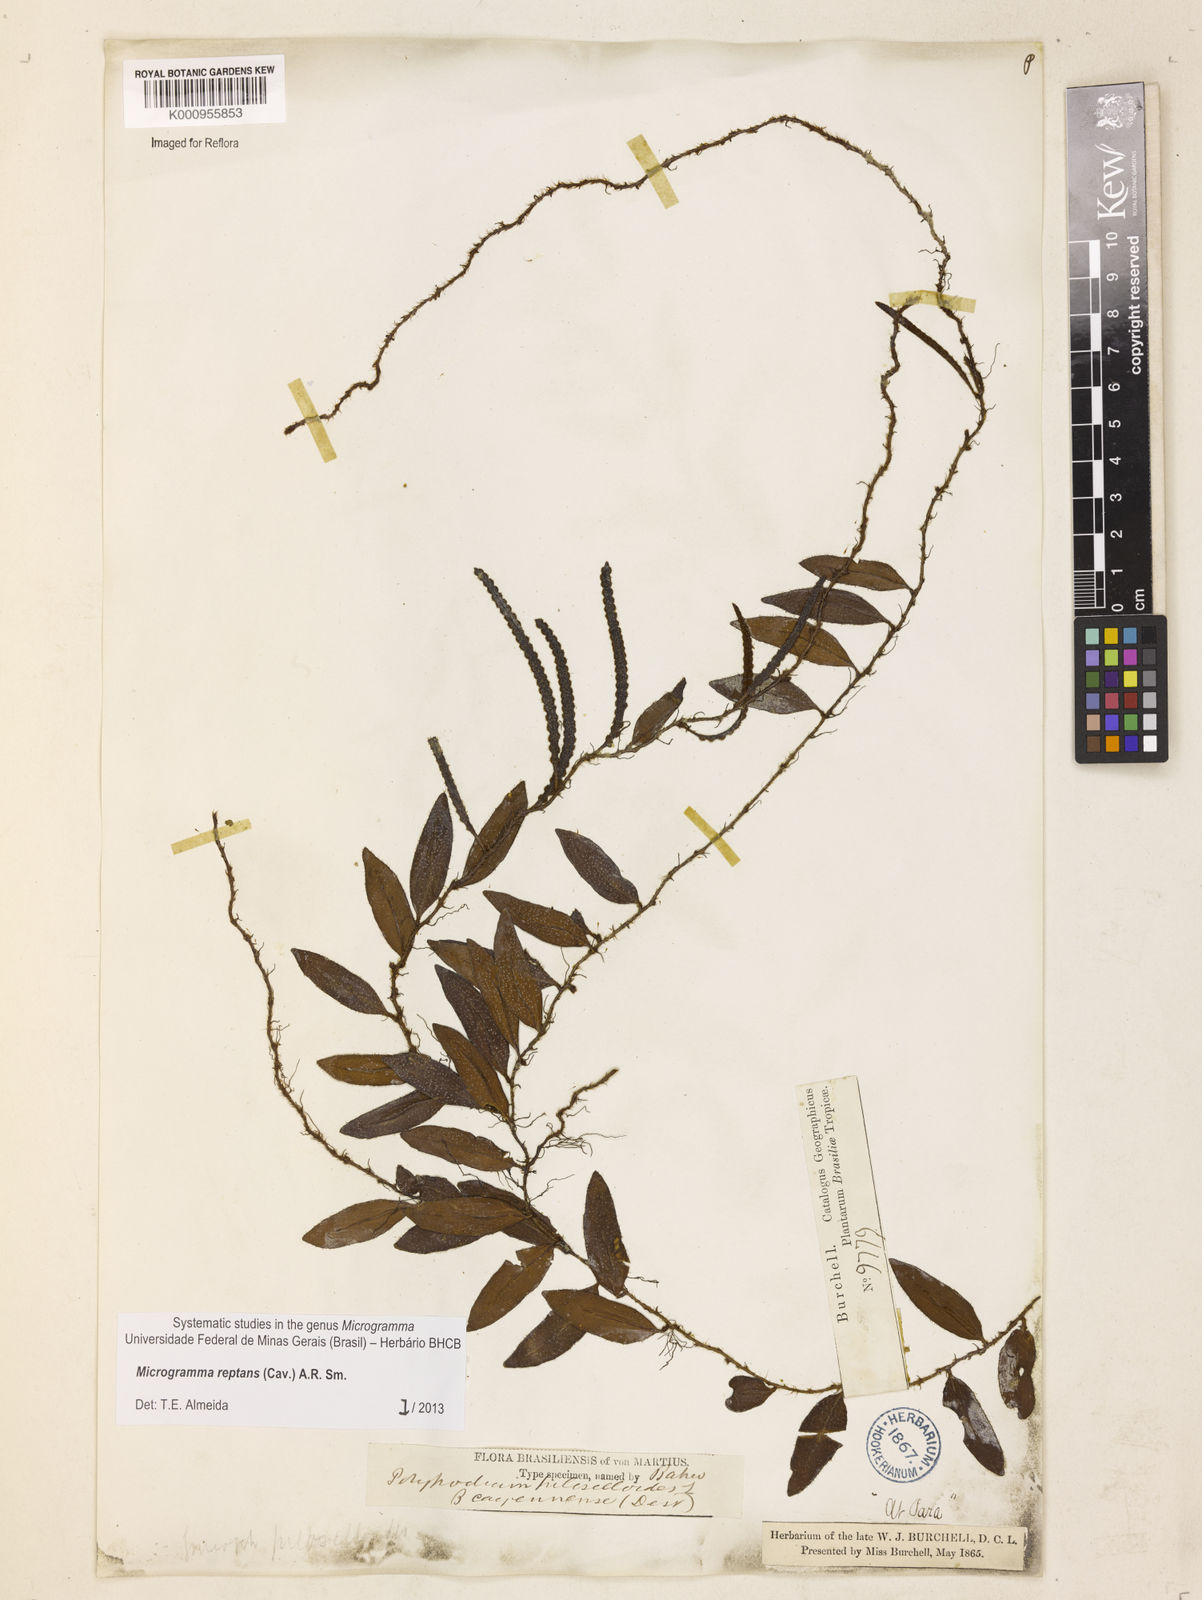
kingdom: Plantae
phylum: Tracheophyta
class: Polypodiopsida
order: Polypodiales
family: Polypodiaceae
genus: Microgramma
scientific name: Microgramma reptans
